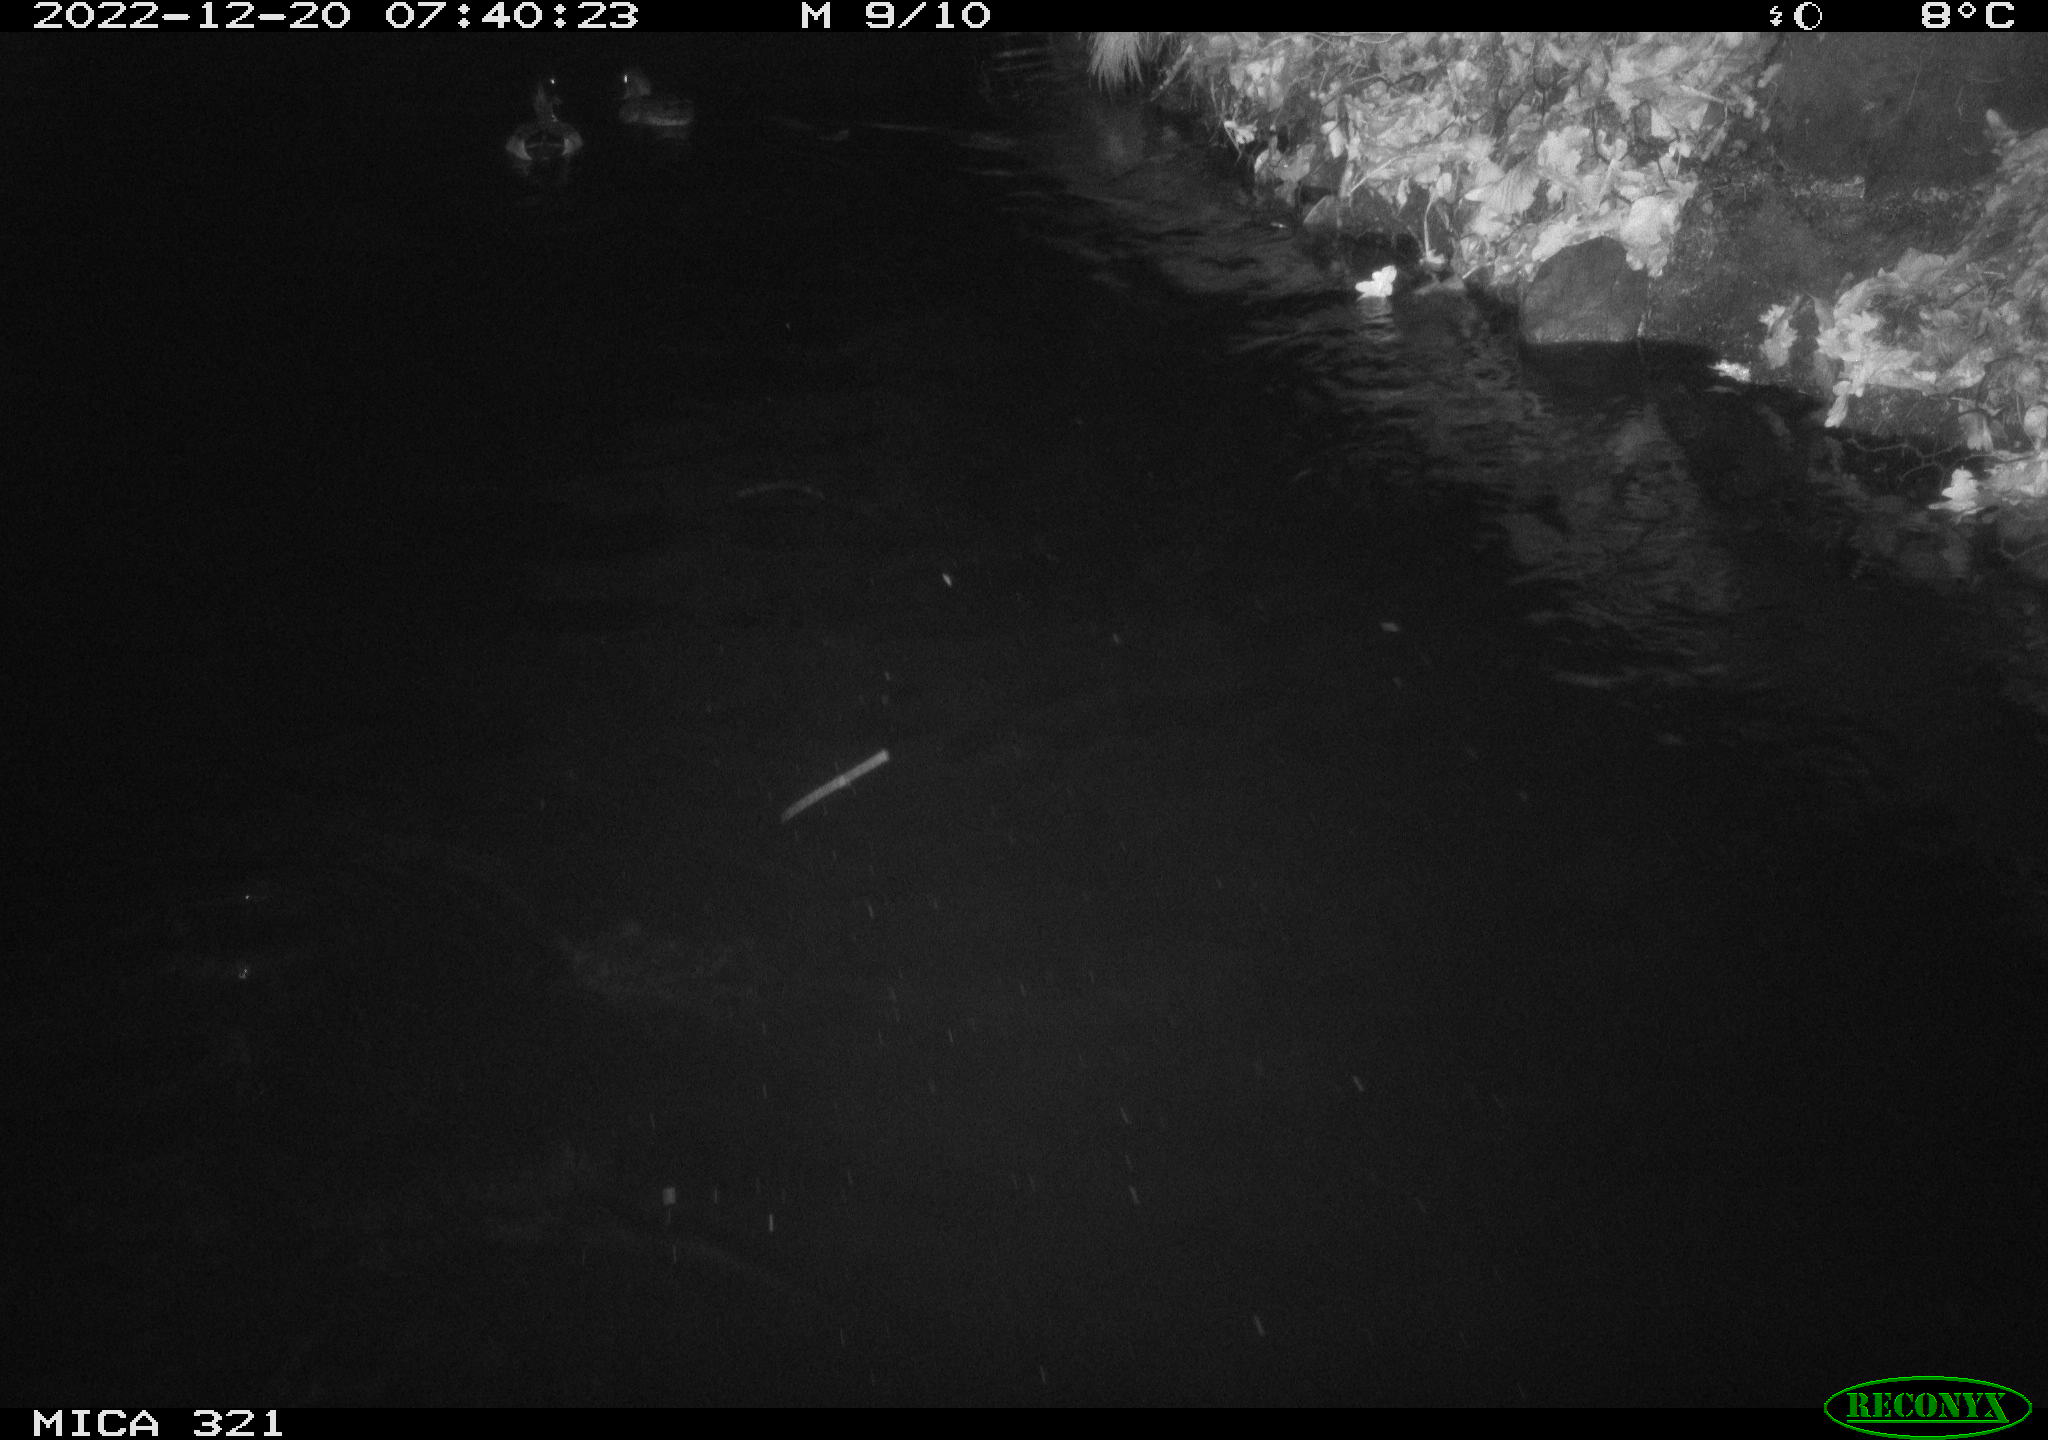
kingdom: Animalia
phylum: Chordata
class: Aves
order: Anseriformes
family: Anatidae
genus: Anas
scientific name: Anas
